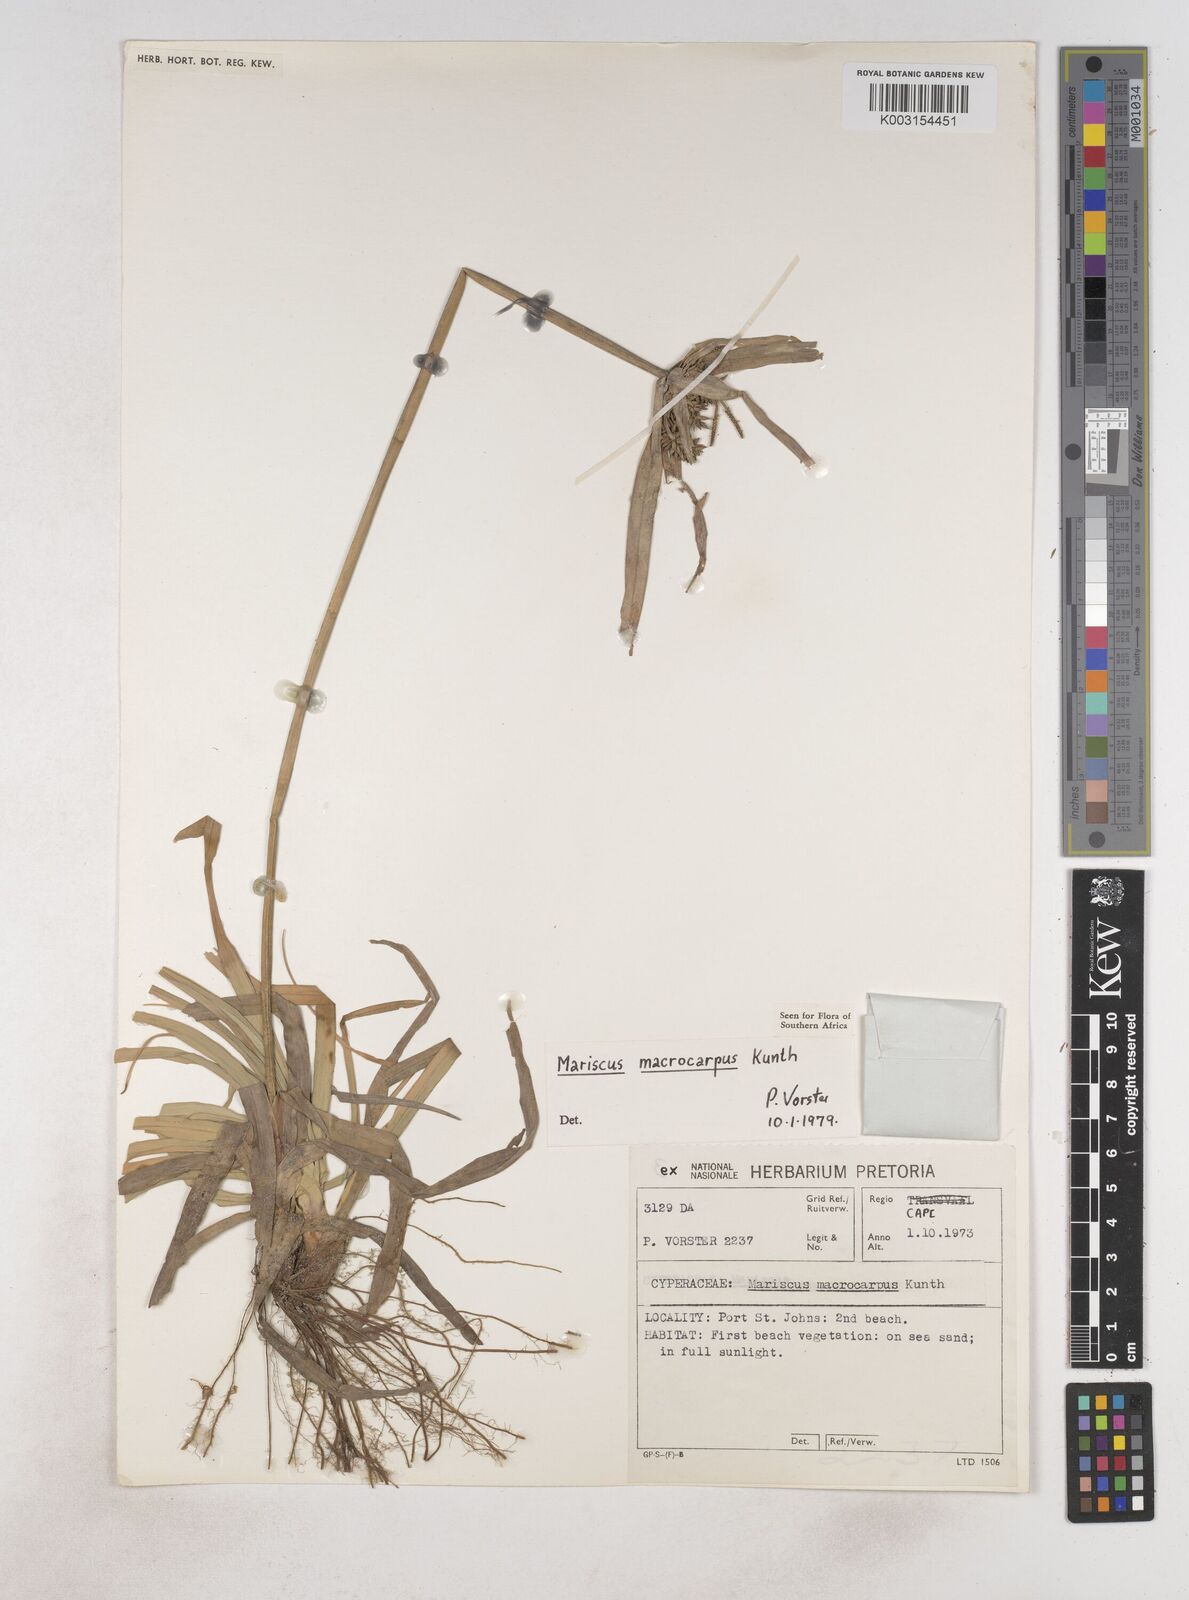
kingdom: Plantae
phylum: Tracheophyta
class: Liliopsida
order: Poales
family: Cyperaceae
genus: Cyperus
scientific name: Cyperus macrocarpus
